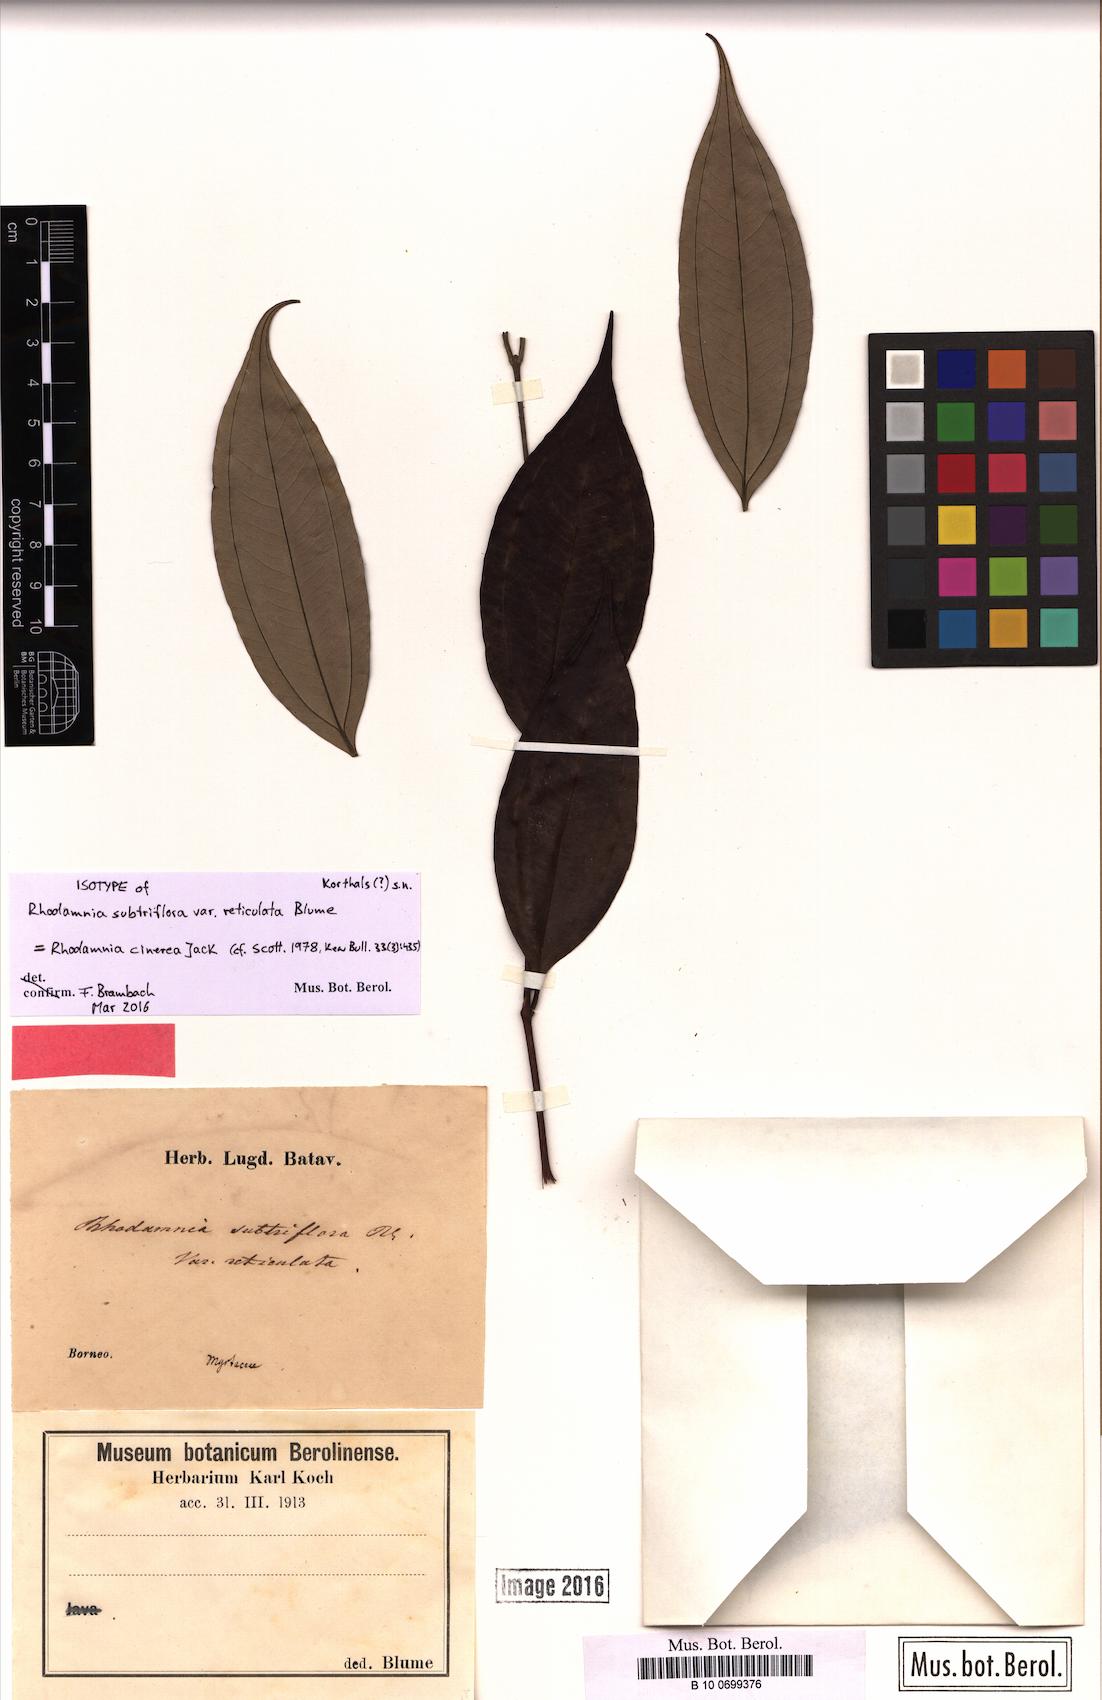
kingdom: Plantae
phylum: Tracheophyta
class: Magnoliopsida
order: Myrtales
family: Myrtaceae
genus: Rhodamnia
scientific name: Rhodamnia cinerea
